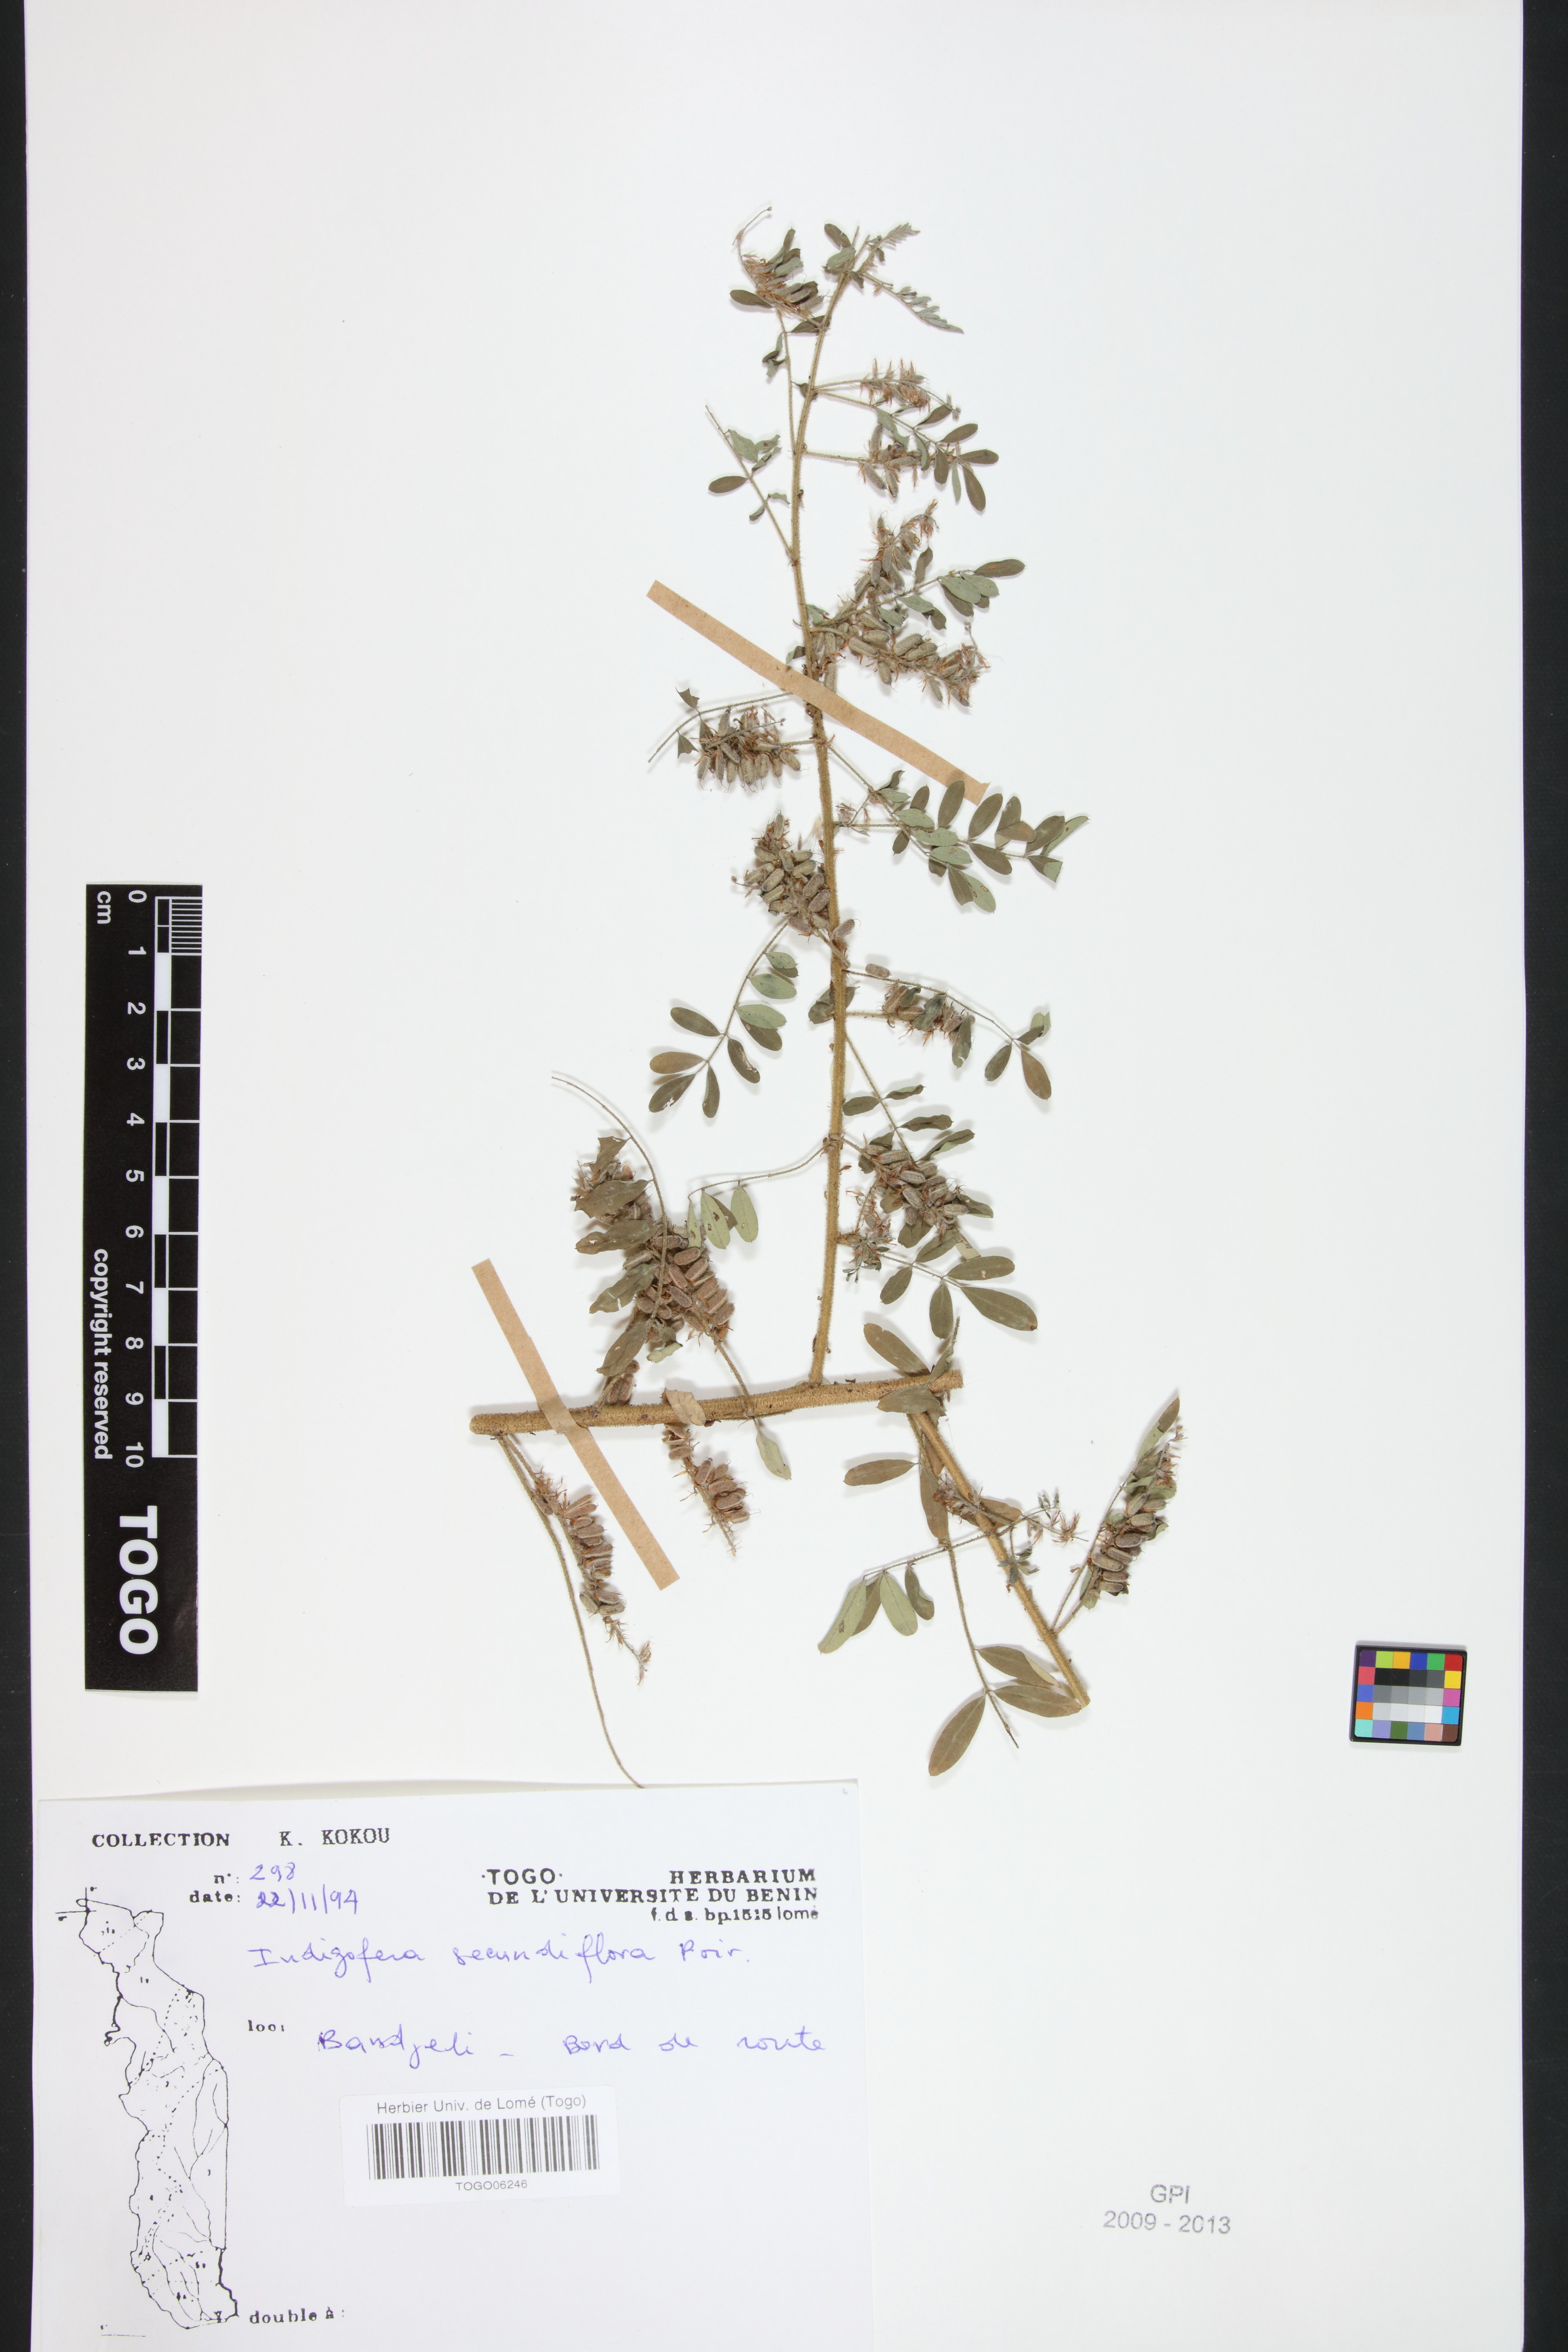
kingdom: Plantae
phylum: Tracheophyta
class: Magnoliopsida
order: Fabales
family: Fabaceae
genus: Indigofera
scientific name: Indigofera secundiflora
